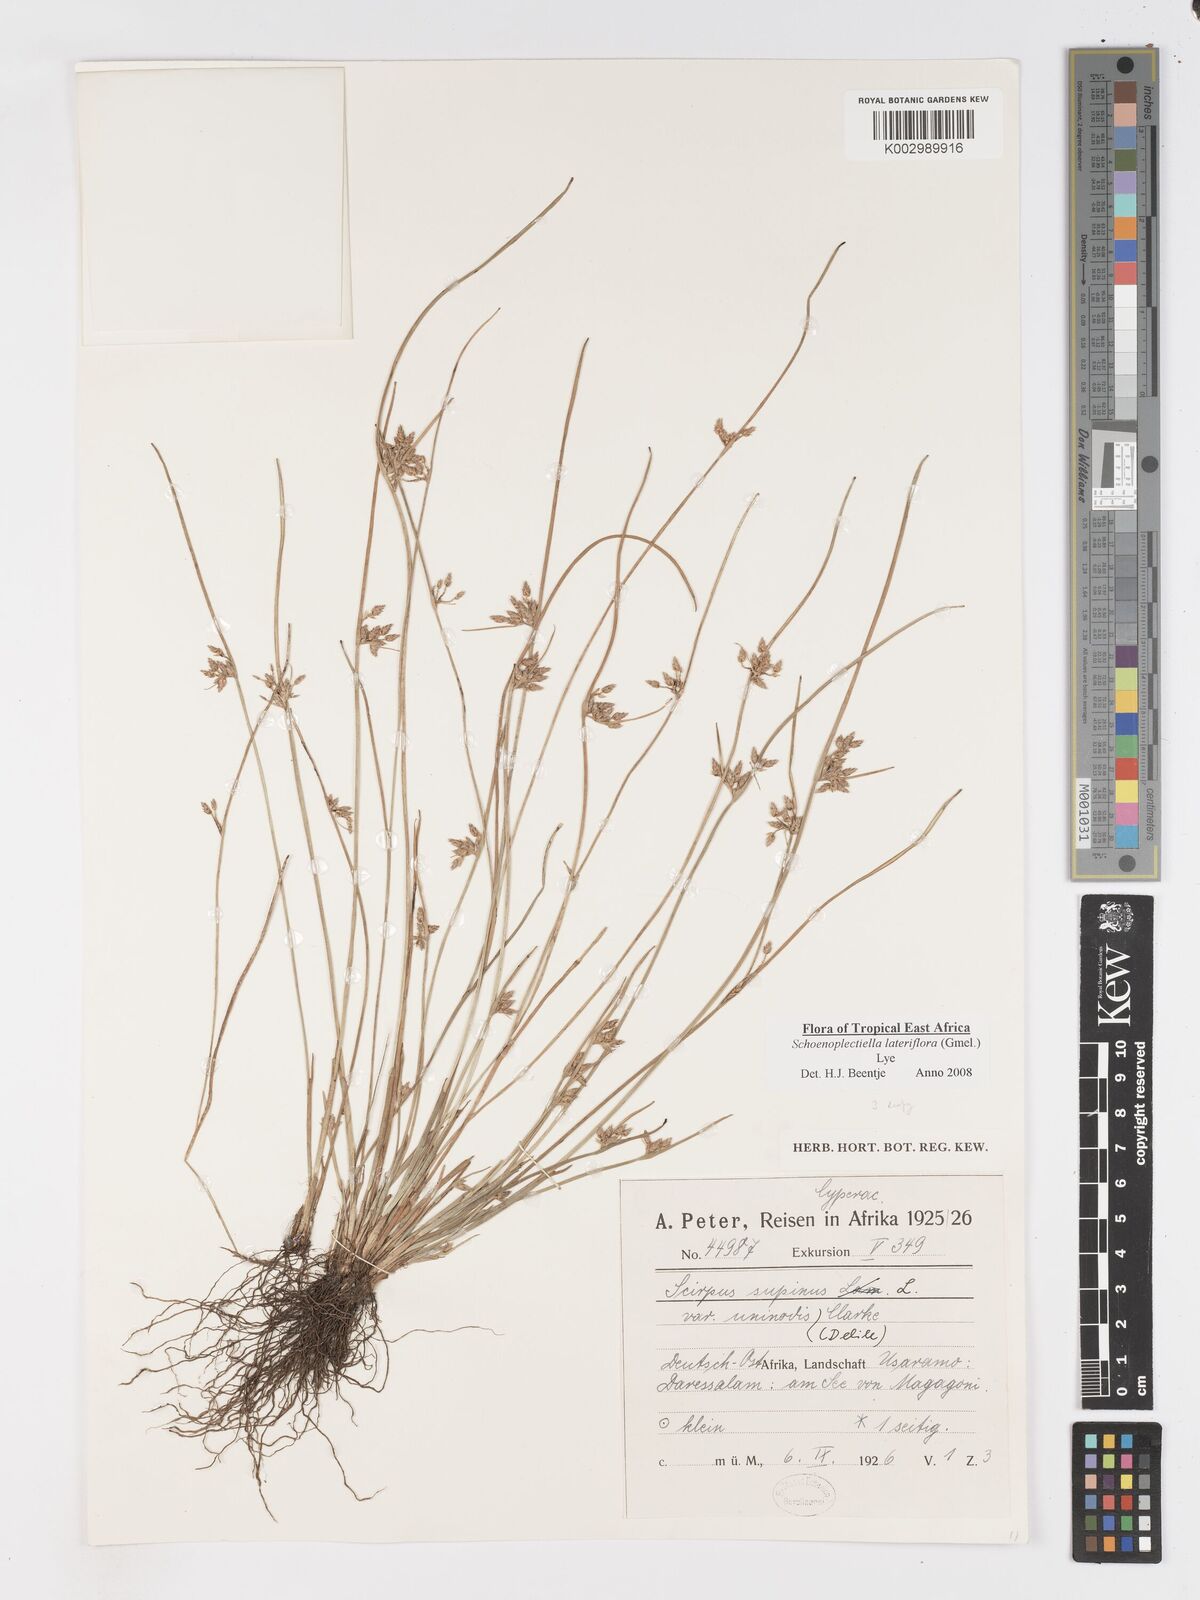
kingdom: Plantae
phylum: Tracheophyta
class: Liliopsida
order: Poales
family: Cyperaceae
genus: Schoenoplectiella
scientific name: Schoenoplectiella lateriflora
